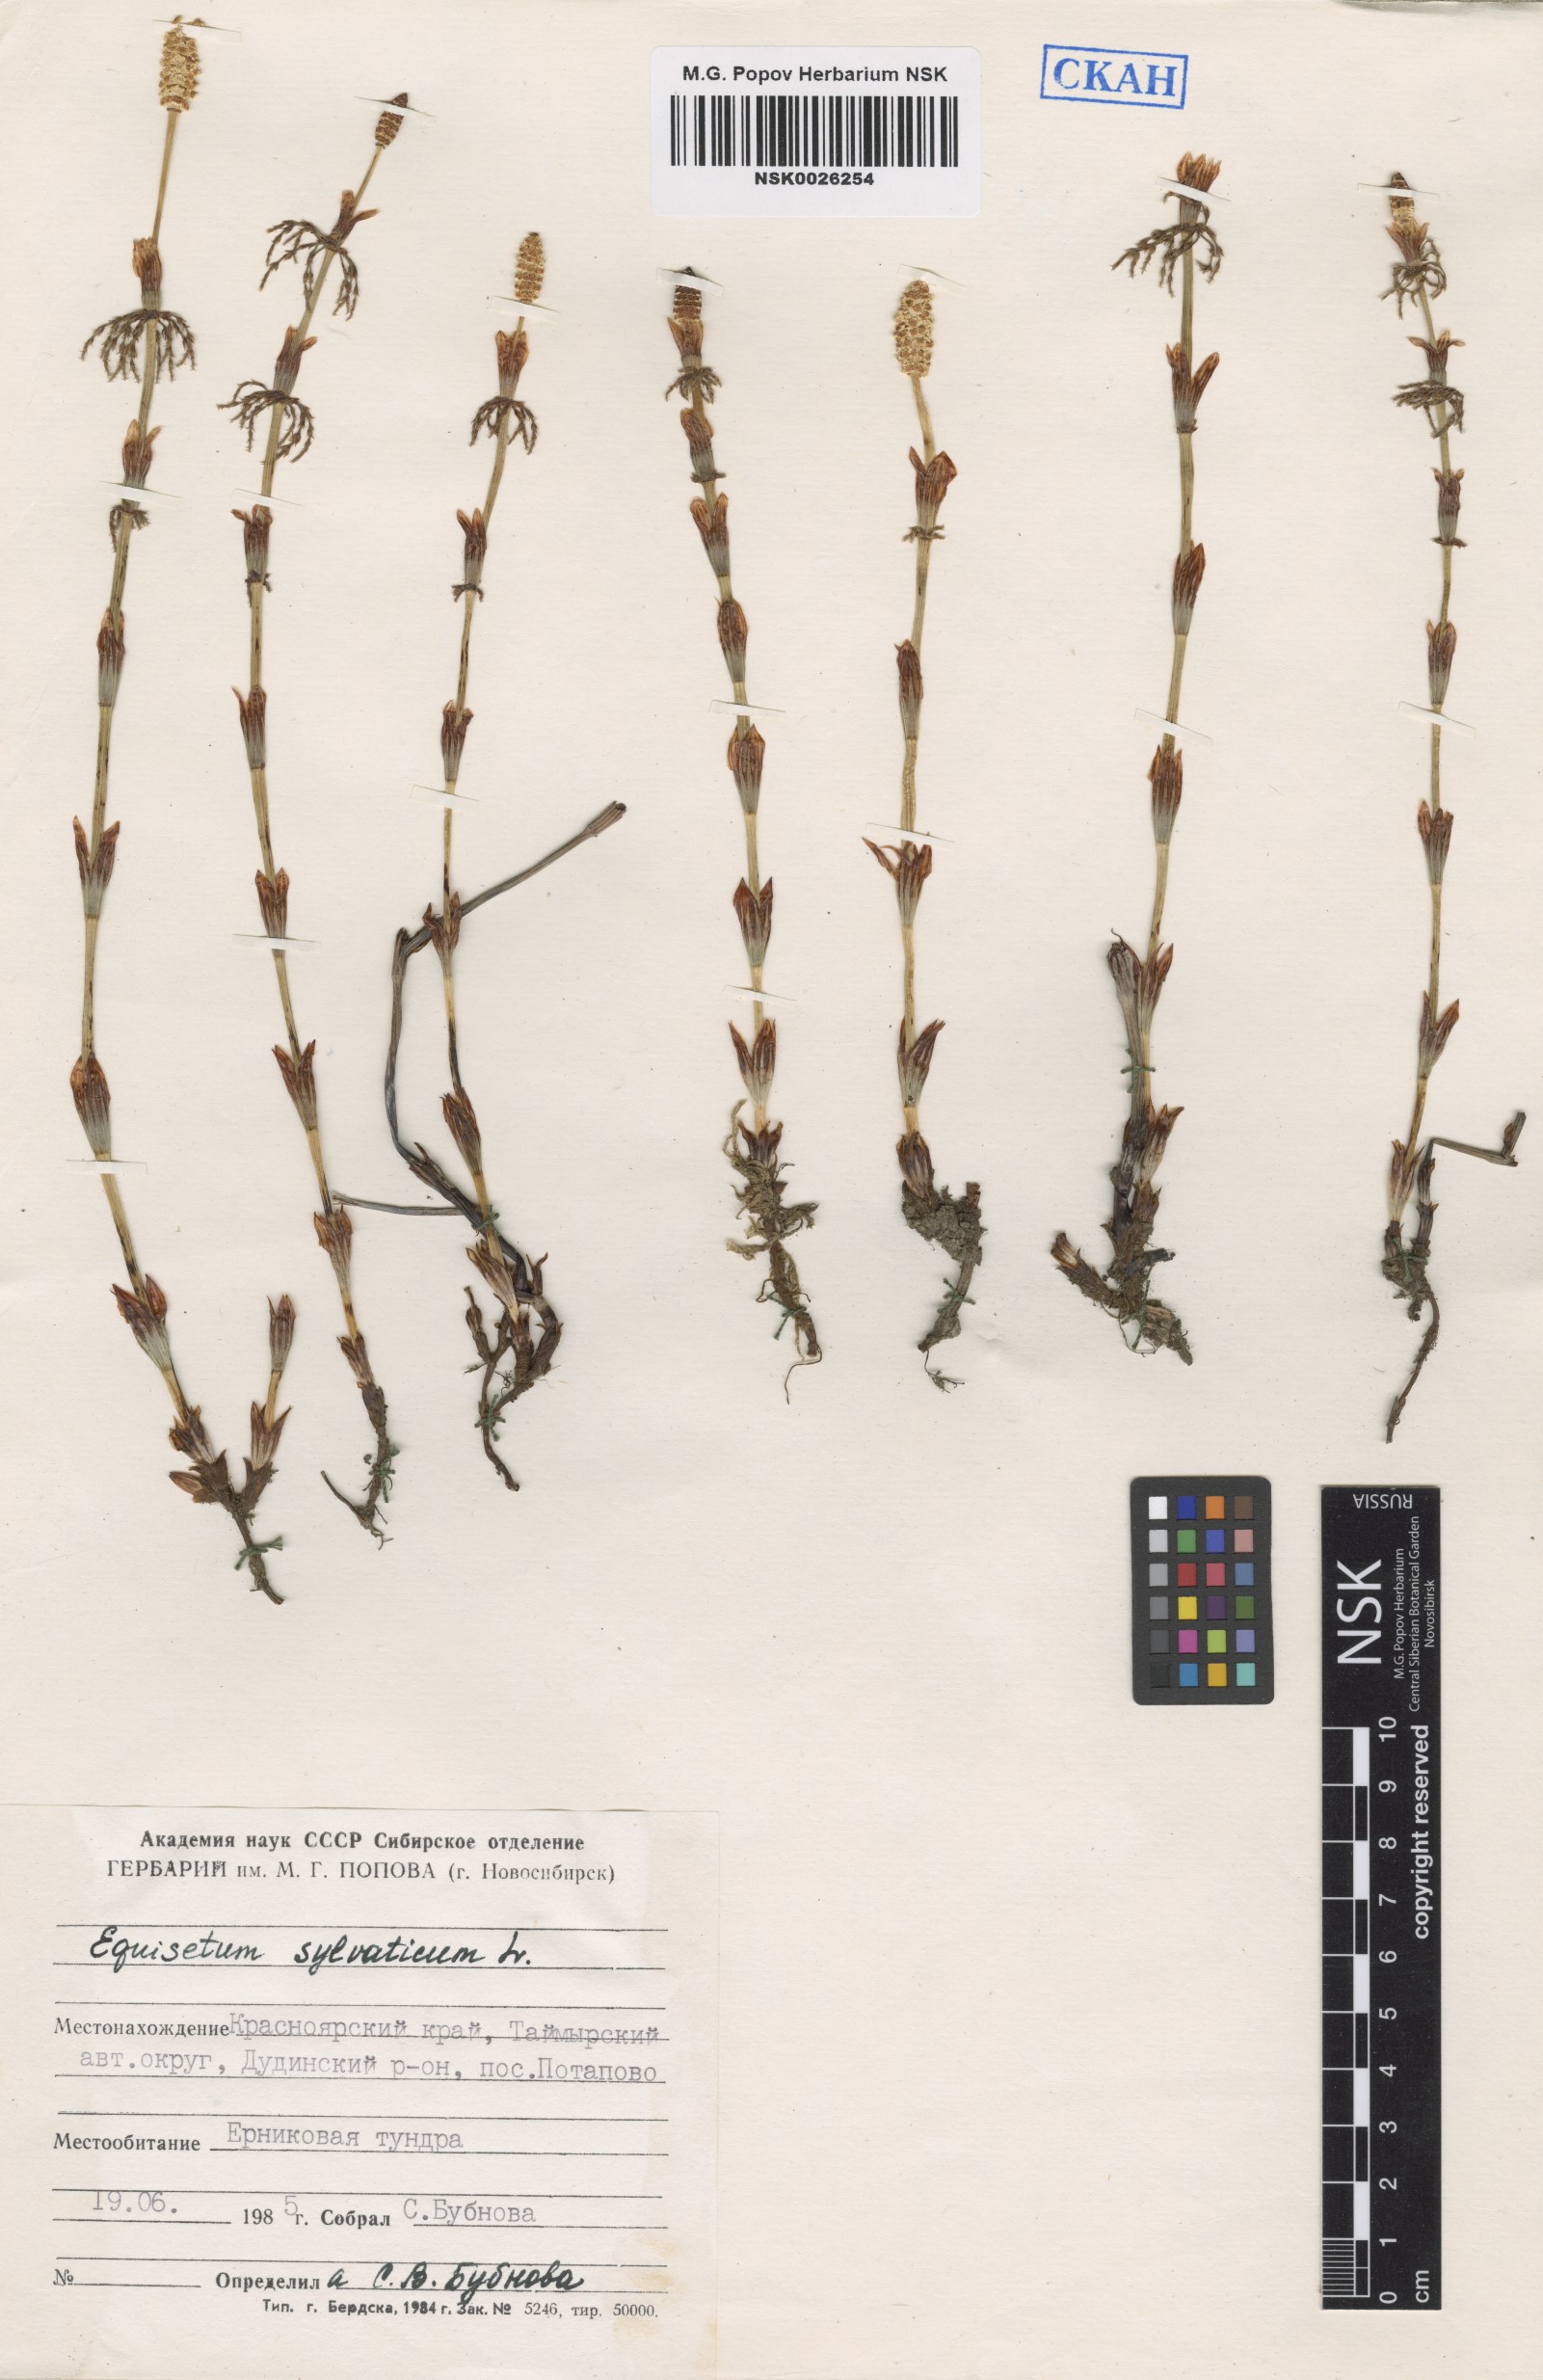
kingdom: Plantae
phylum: Tracheophyta
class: Polypodiopsida
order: Equisetales
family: Equisetaceae
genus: Equisetum
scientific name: Equisetum sylvaticum
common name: Wood horsetail
